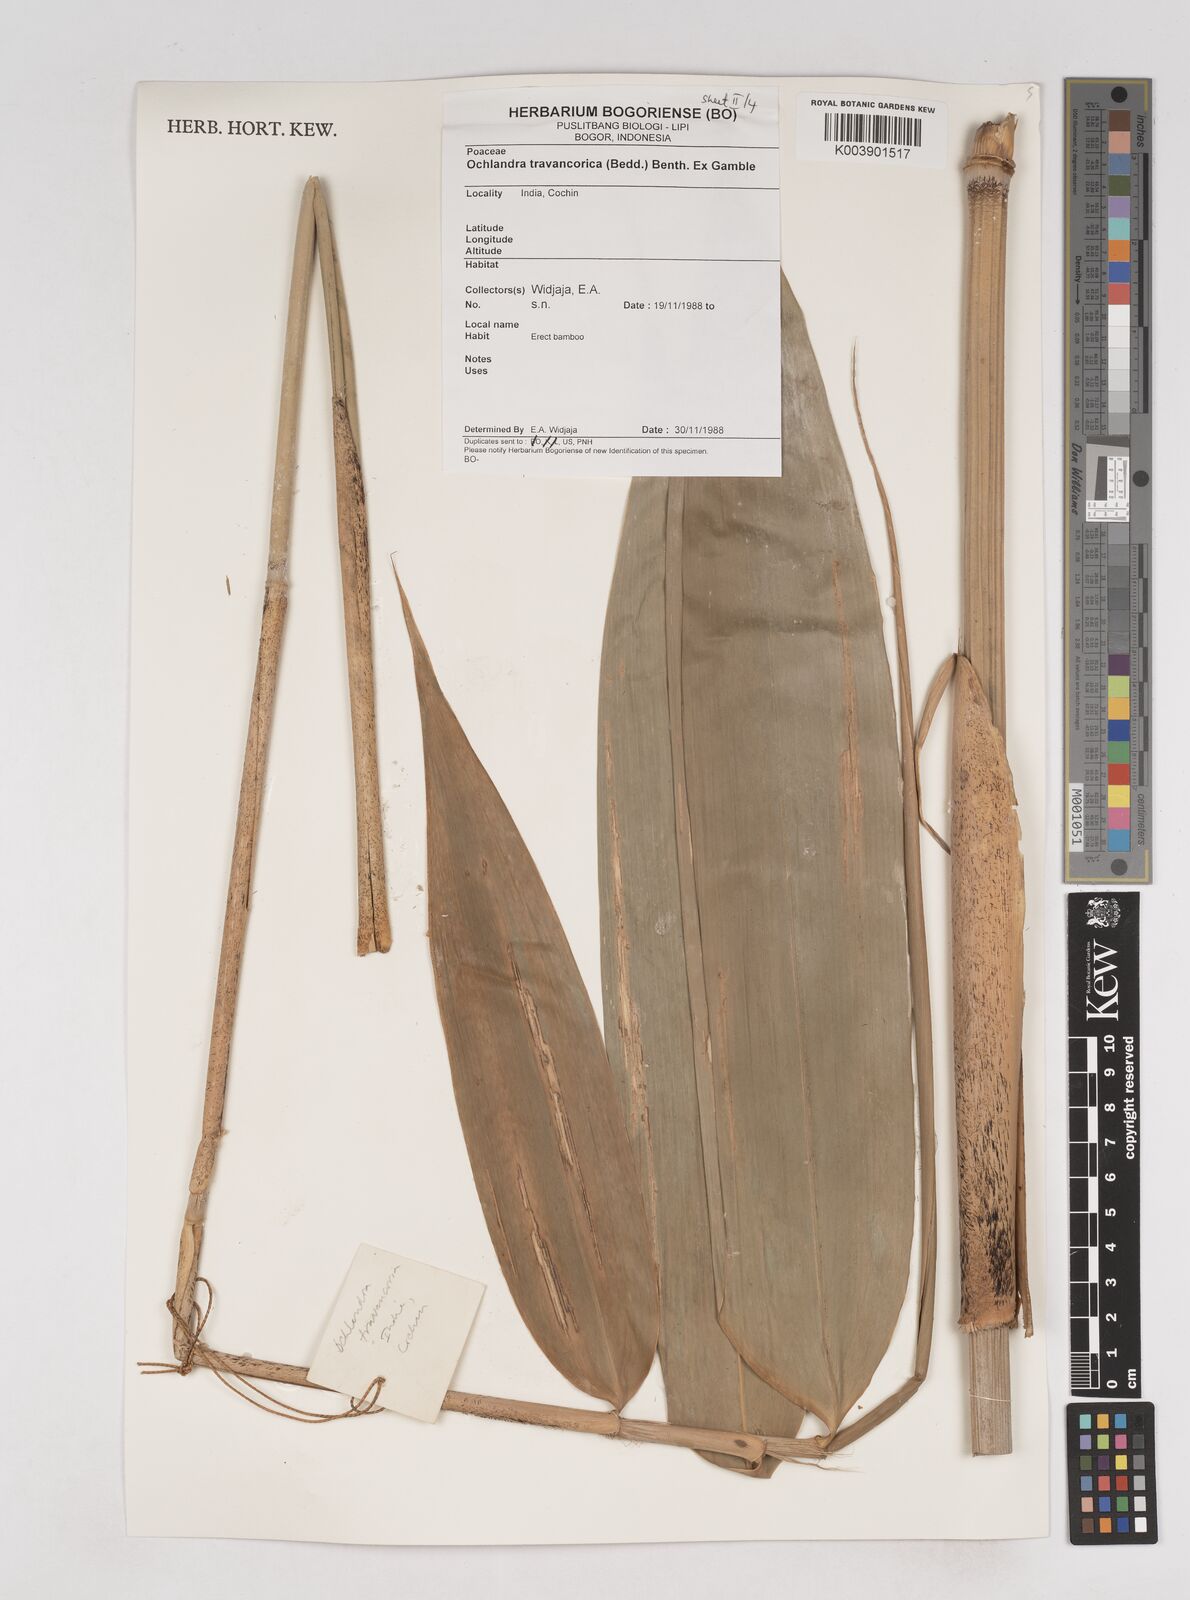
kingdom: Plantae
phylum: Tracheophyta
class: Liliopsida
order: Poales
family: Poaceae
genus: Ochlandra
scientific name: Ochlandra travancorica
